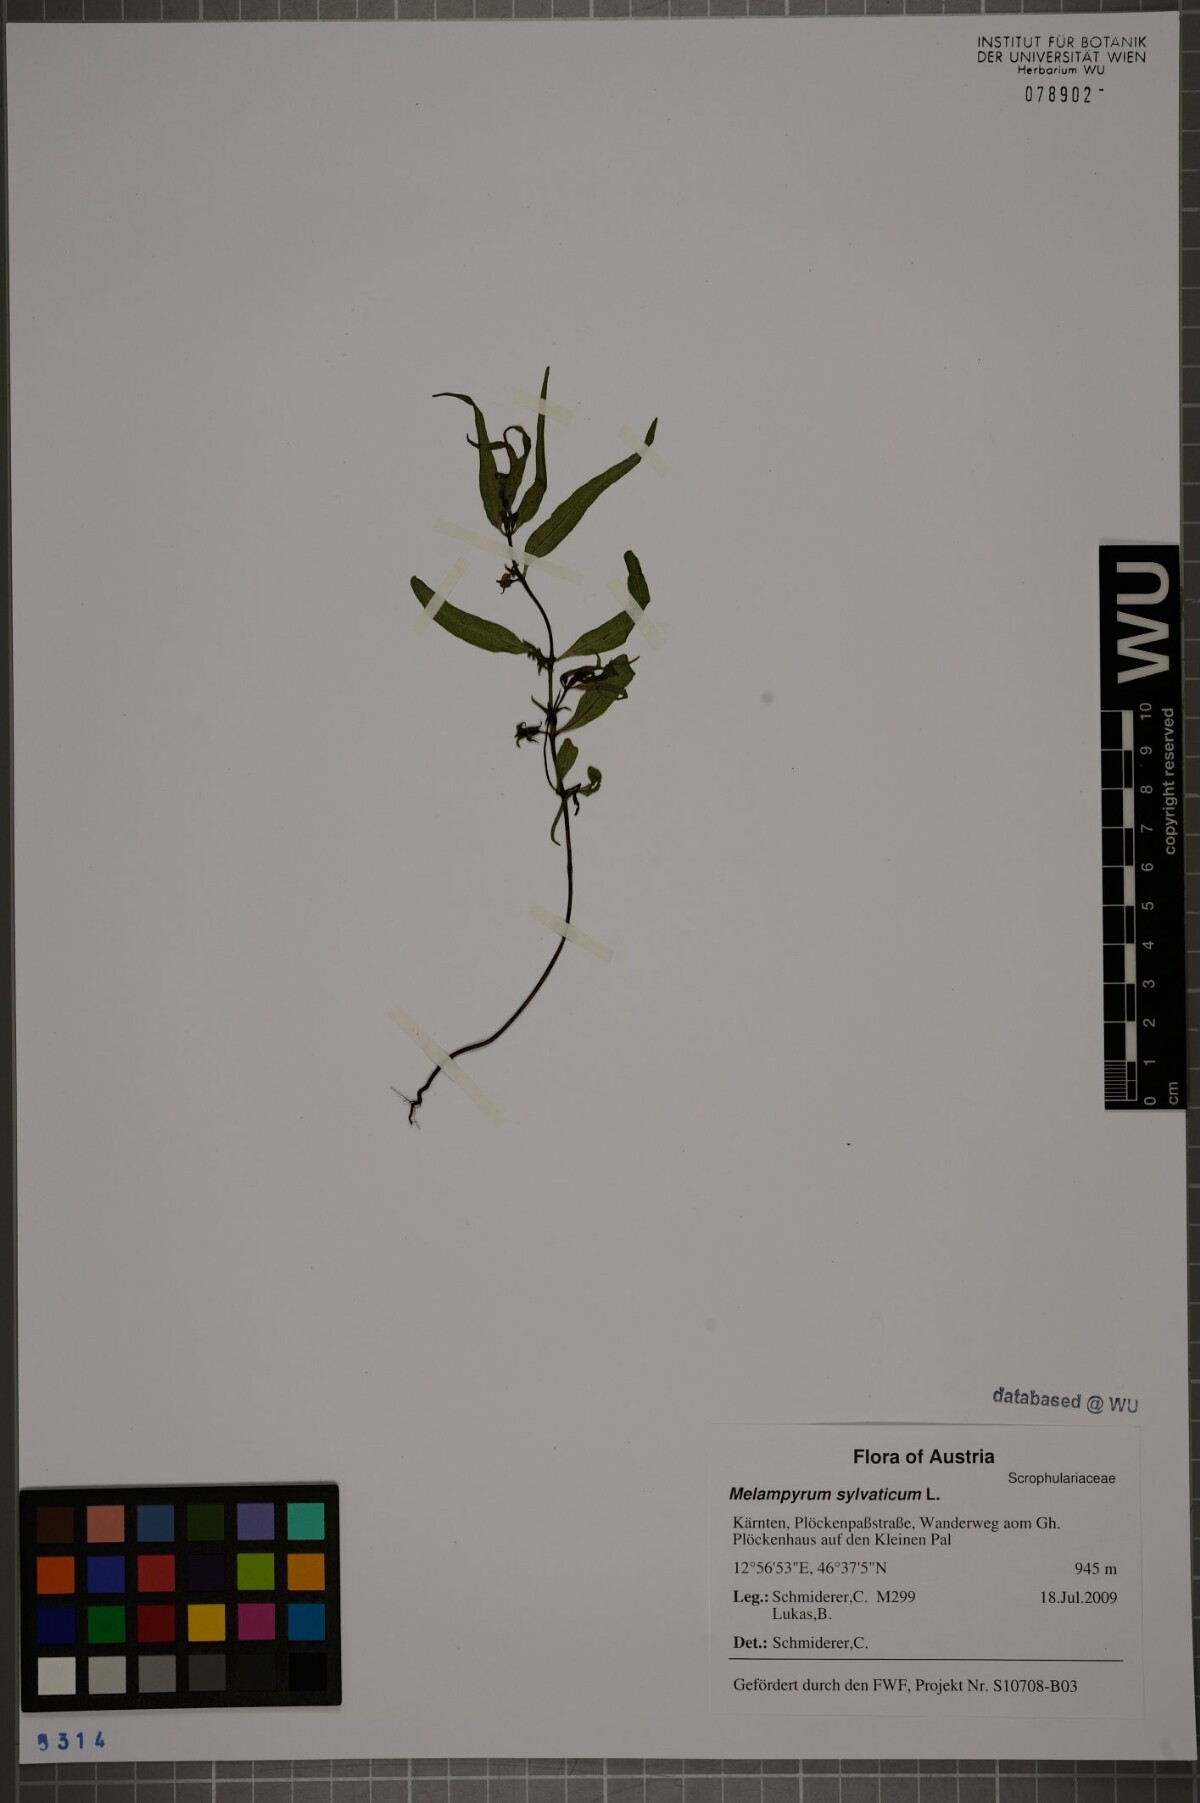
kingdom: Plantae
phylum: Tracheophyta
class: Magnoliopsida
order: Lamiales
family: Orobanchaceae
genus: Melampyrum
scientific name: Melampyrum sylvaticum
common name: Small cow-wheat
